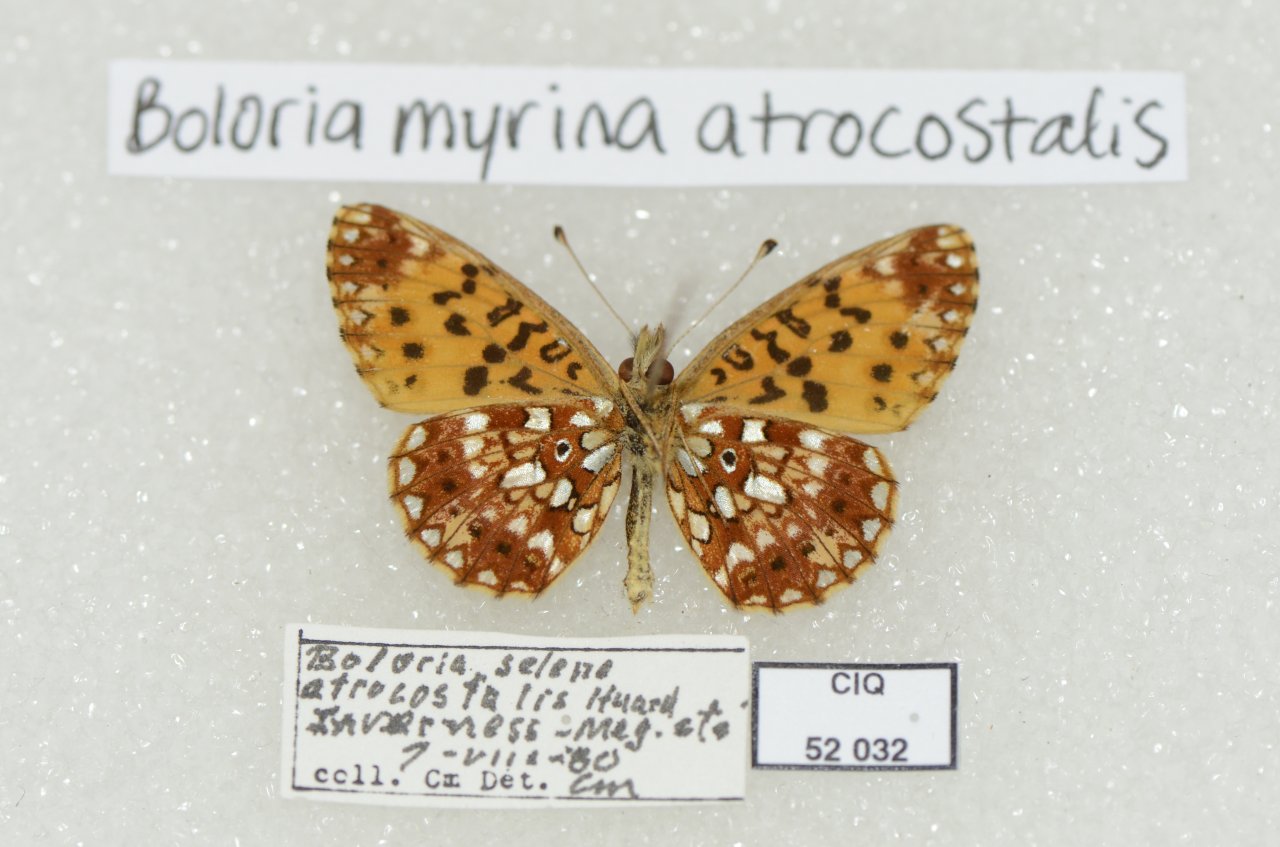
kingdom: Animalia
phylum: Arthropoda
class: Insecta
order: Lepidoptera
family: Nymphalidae
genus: Boloria
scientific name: Boloria selene
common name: Silver-bordered Fritillary
